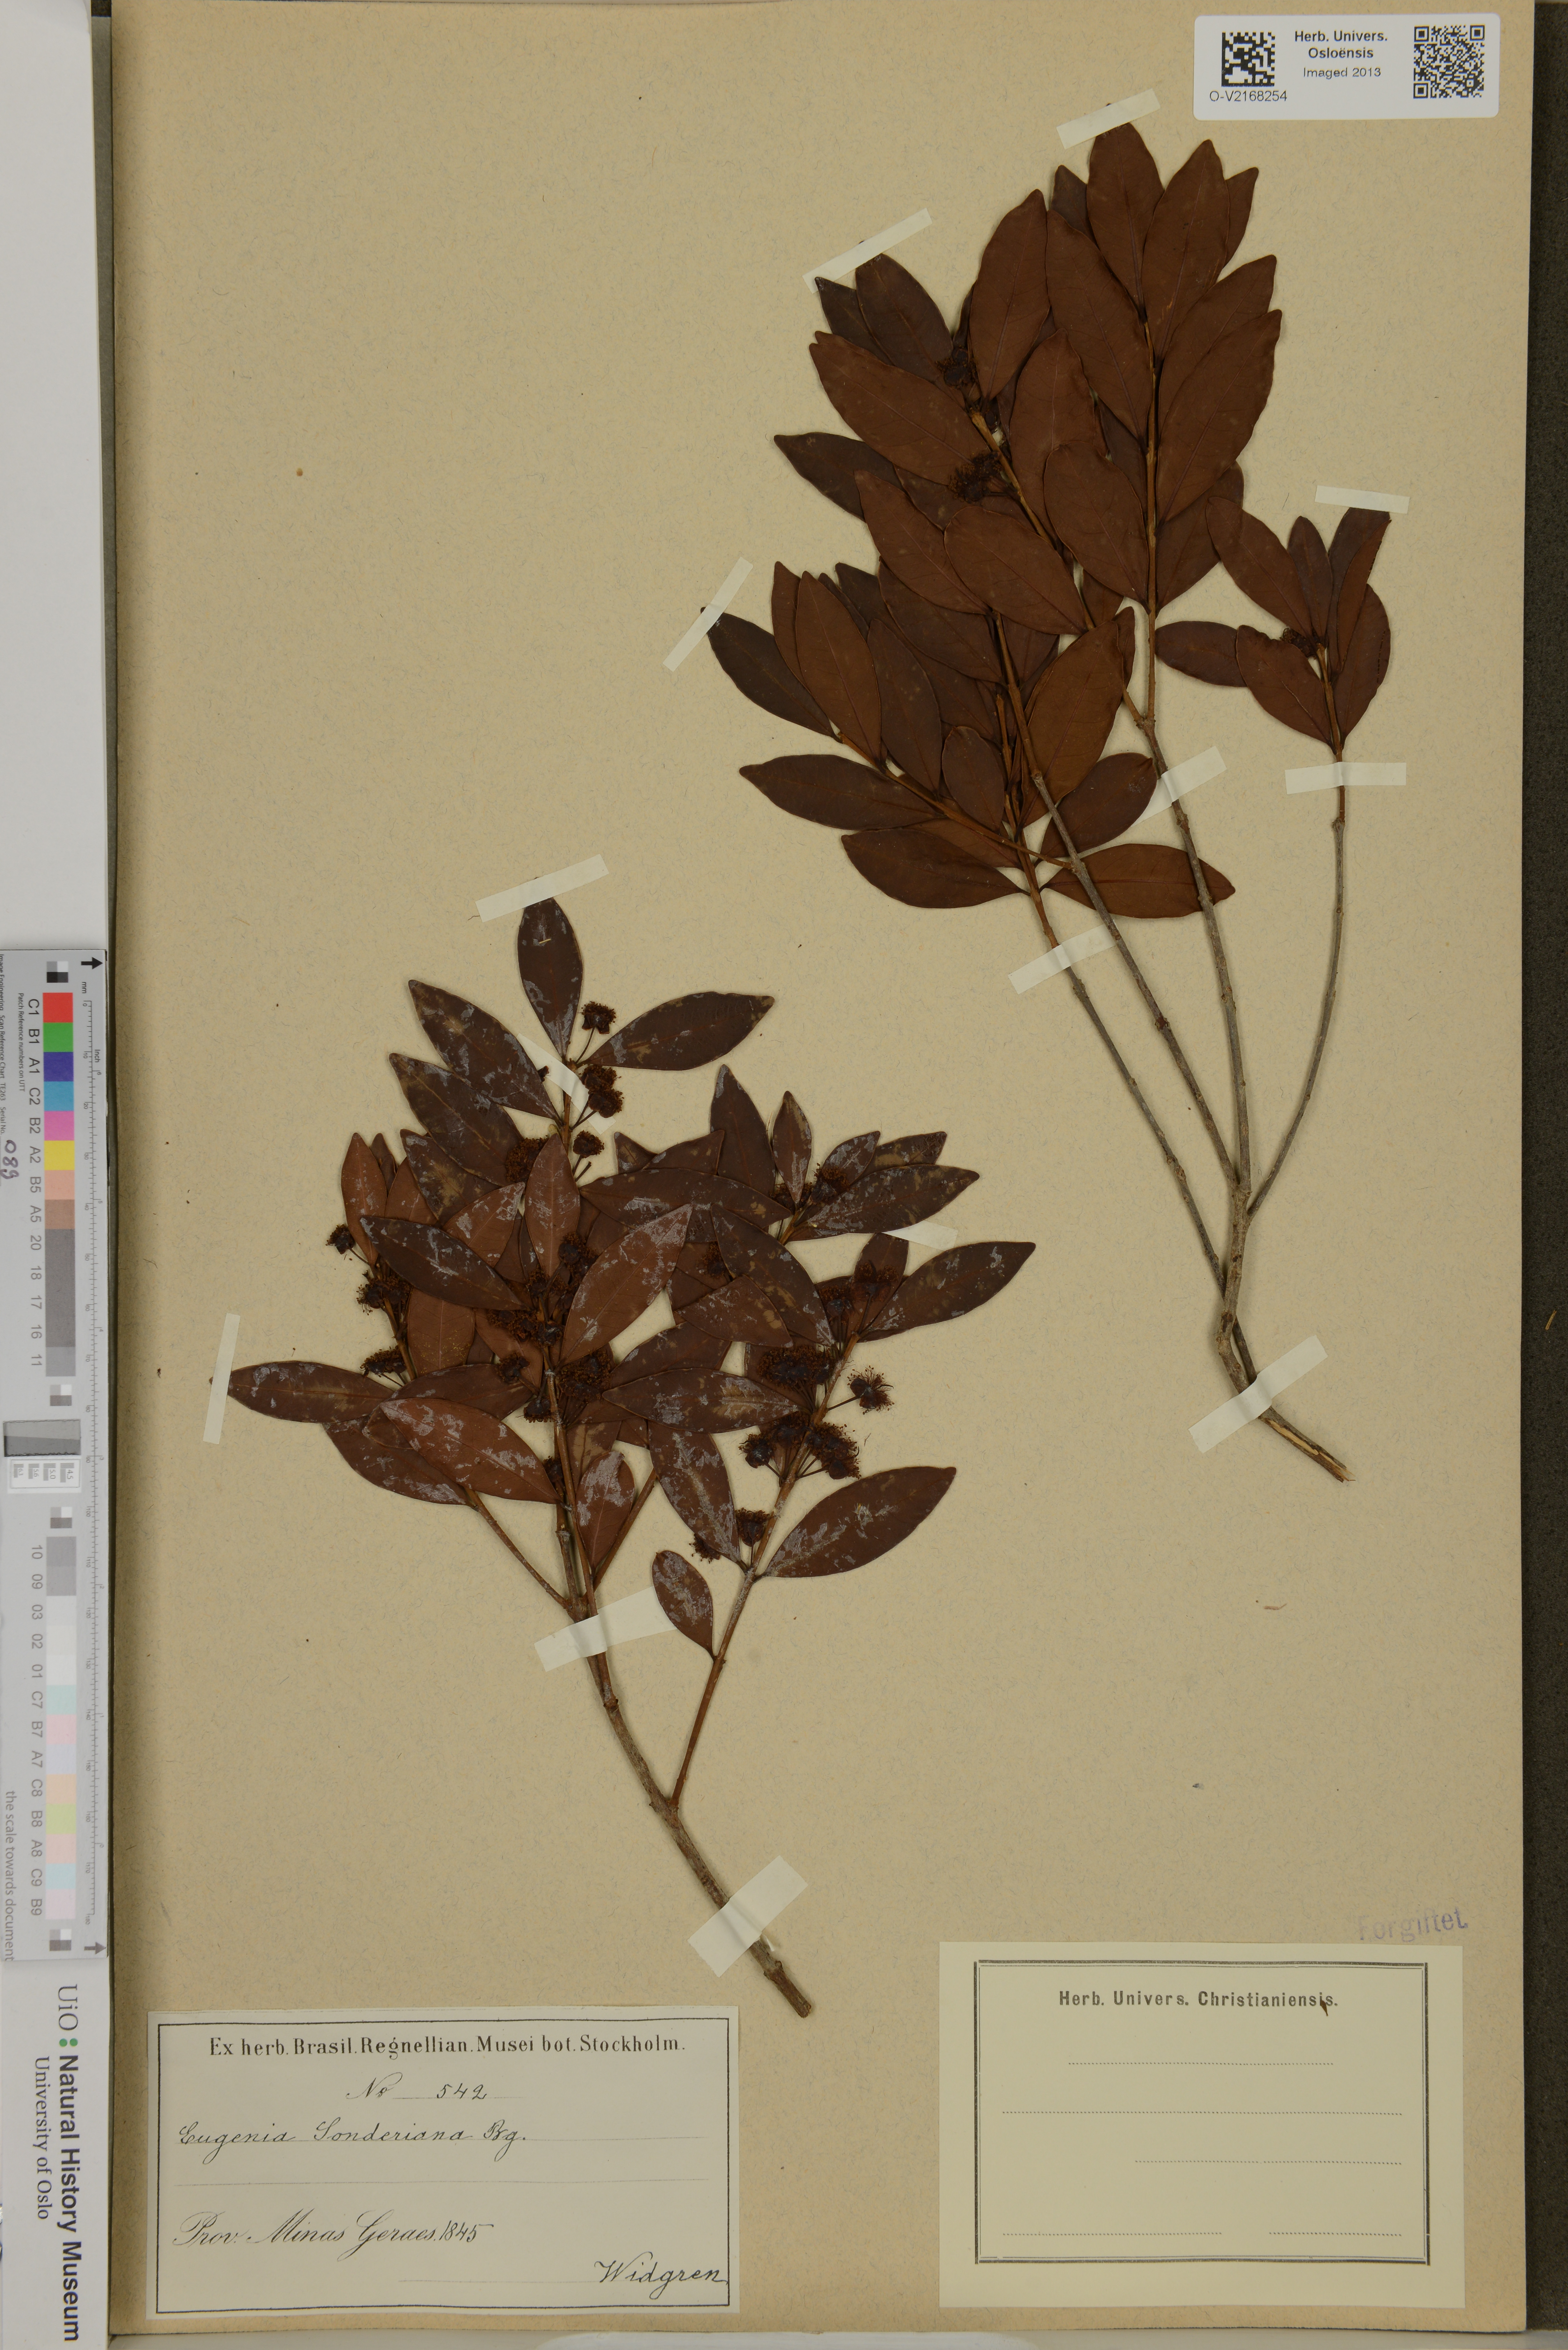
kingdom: Plantae
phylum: Tracheophyta
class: Magnoliopsida
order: Myrtales
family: Myrtaceae
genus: Eugenia
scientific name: Eugenia sonderiana
